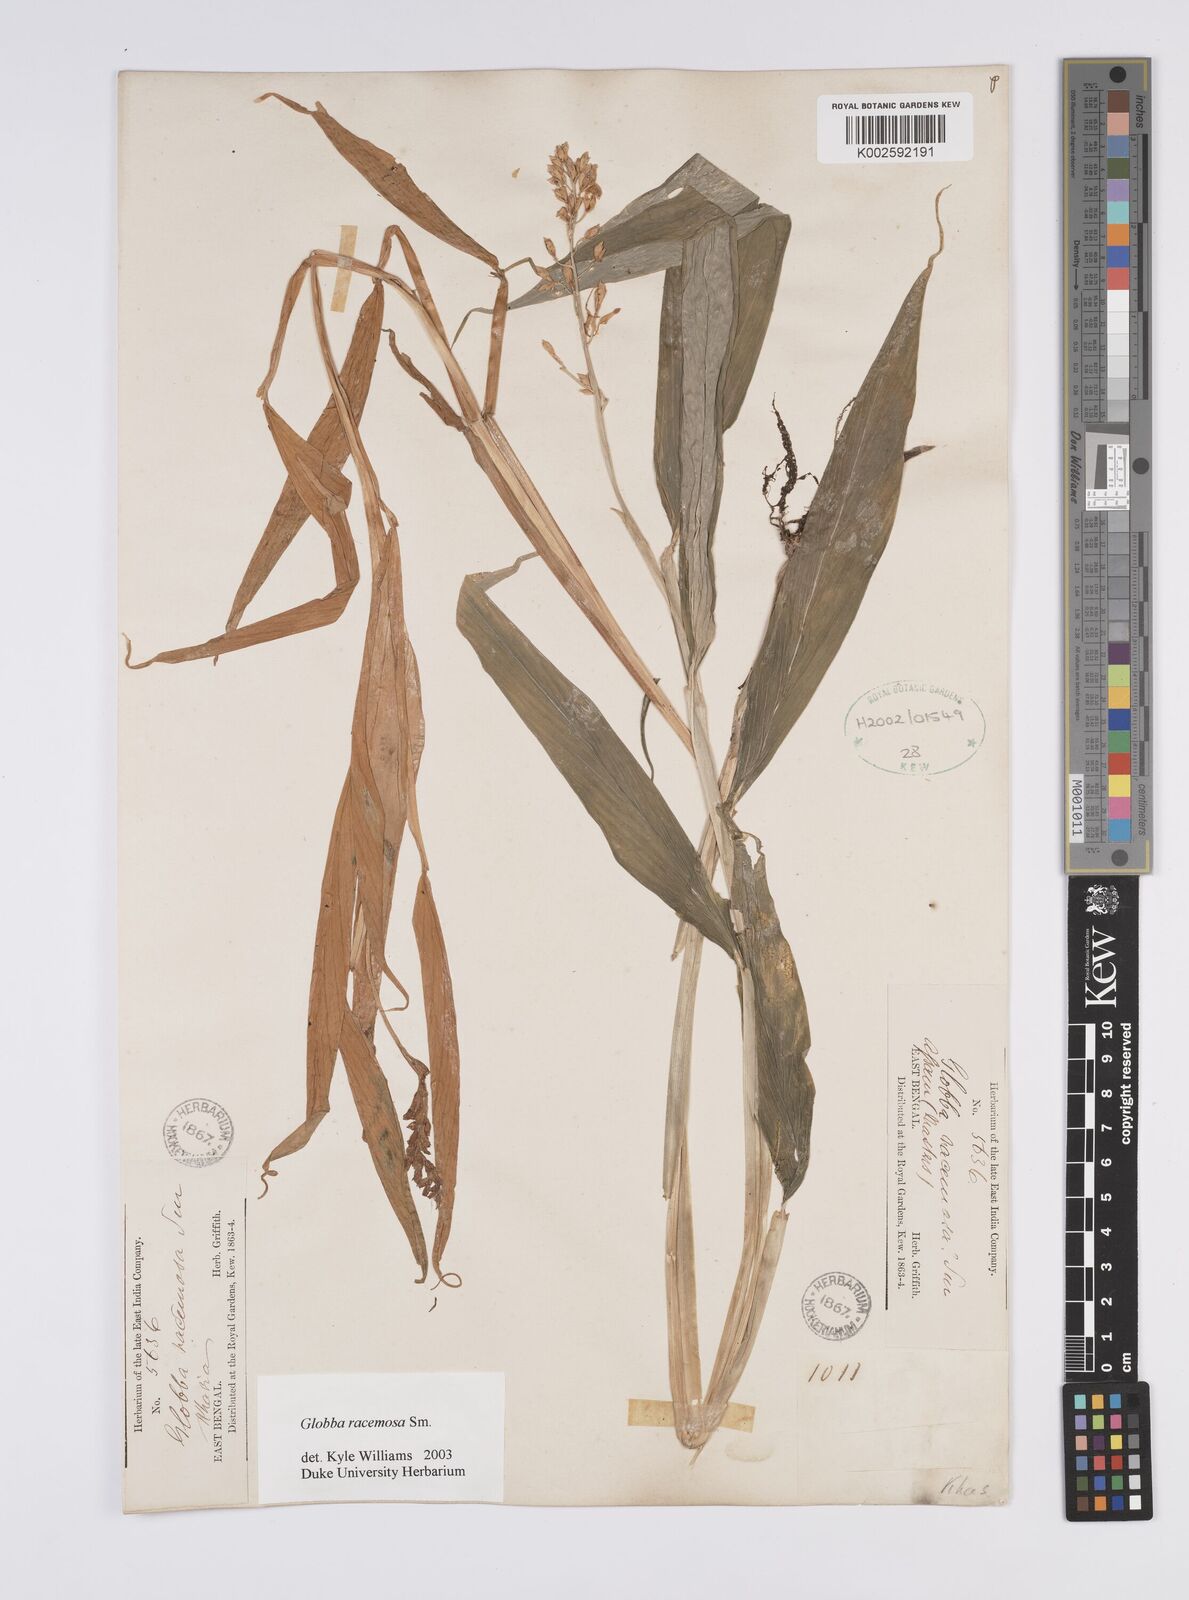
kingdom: Plantae
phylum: Tracheophyta
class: Liliopsida
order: Zingiberales
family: Zingiberaceae
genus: Globba
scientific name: Globba racemosa
